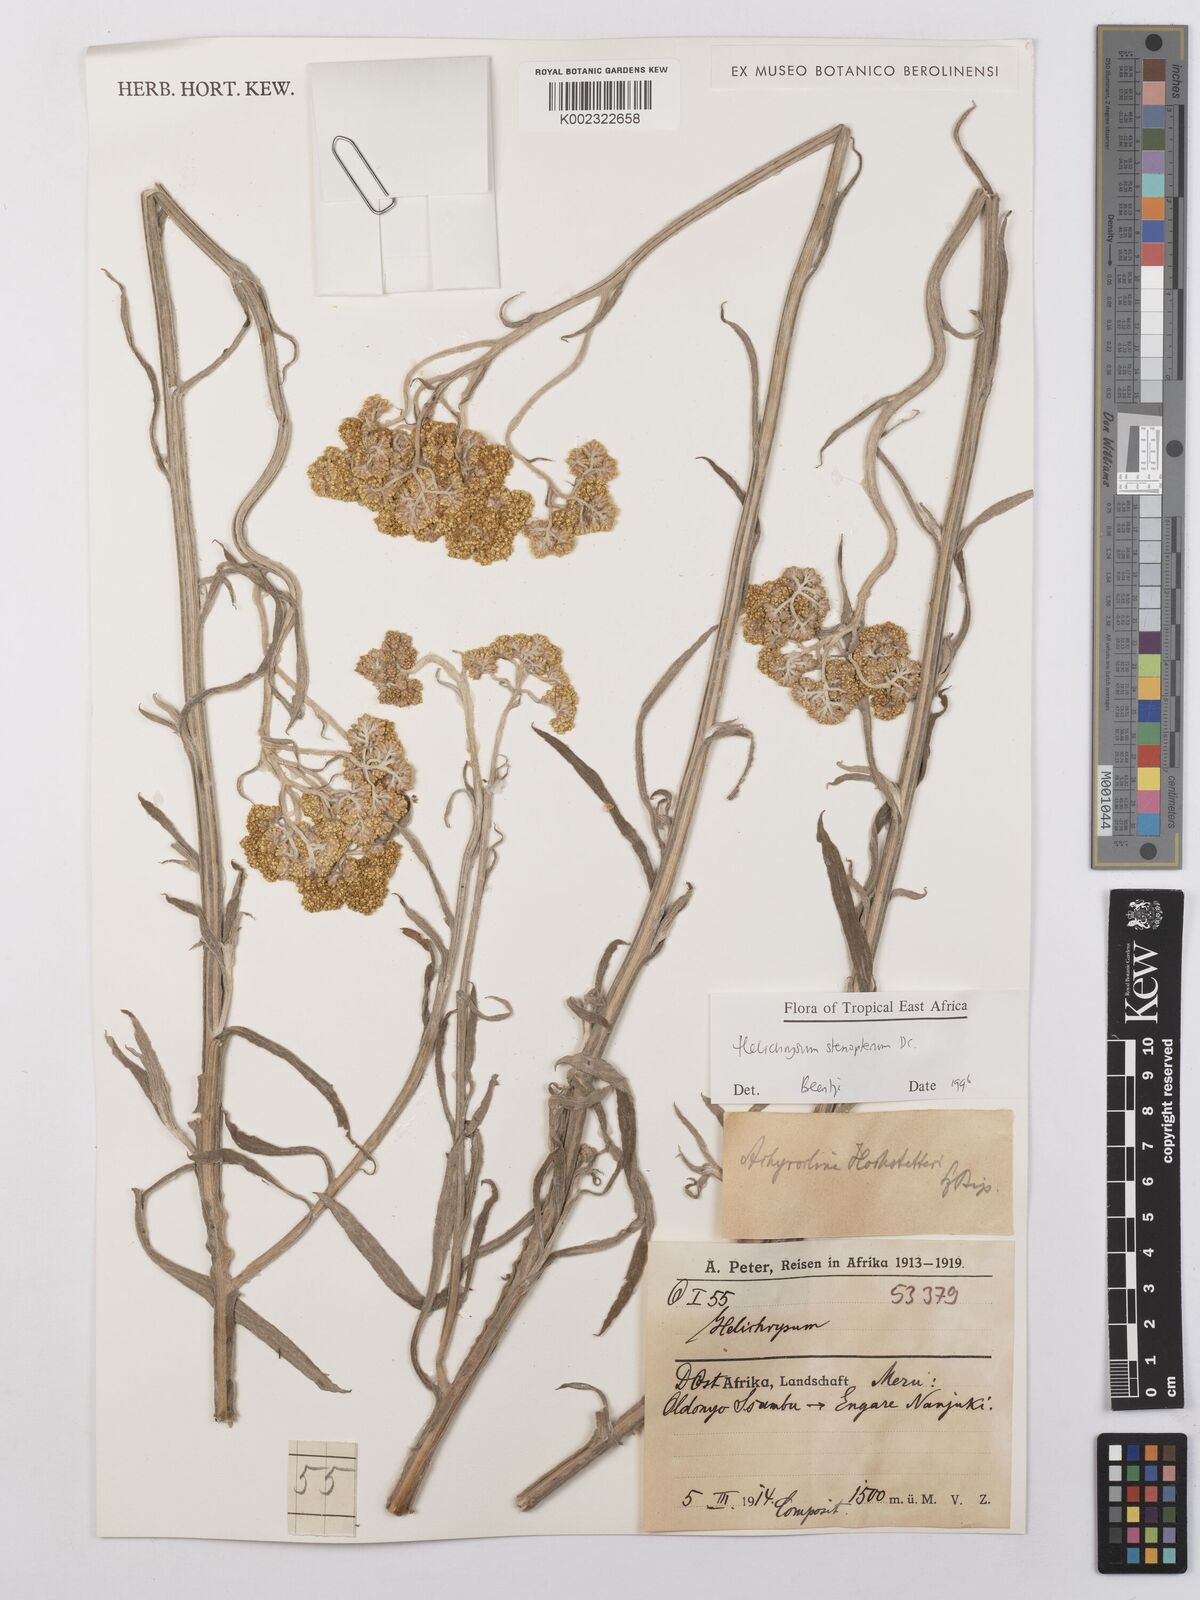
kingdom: Plantae
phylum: Tracheophyta
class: Magnoliopsida
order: Asterales
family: Asteraceae
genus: Helichrysum
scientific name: Helichrysum stenopterum
